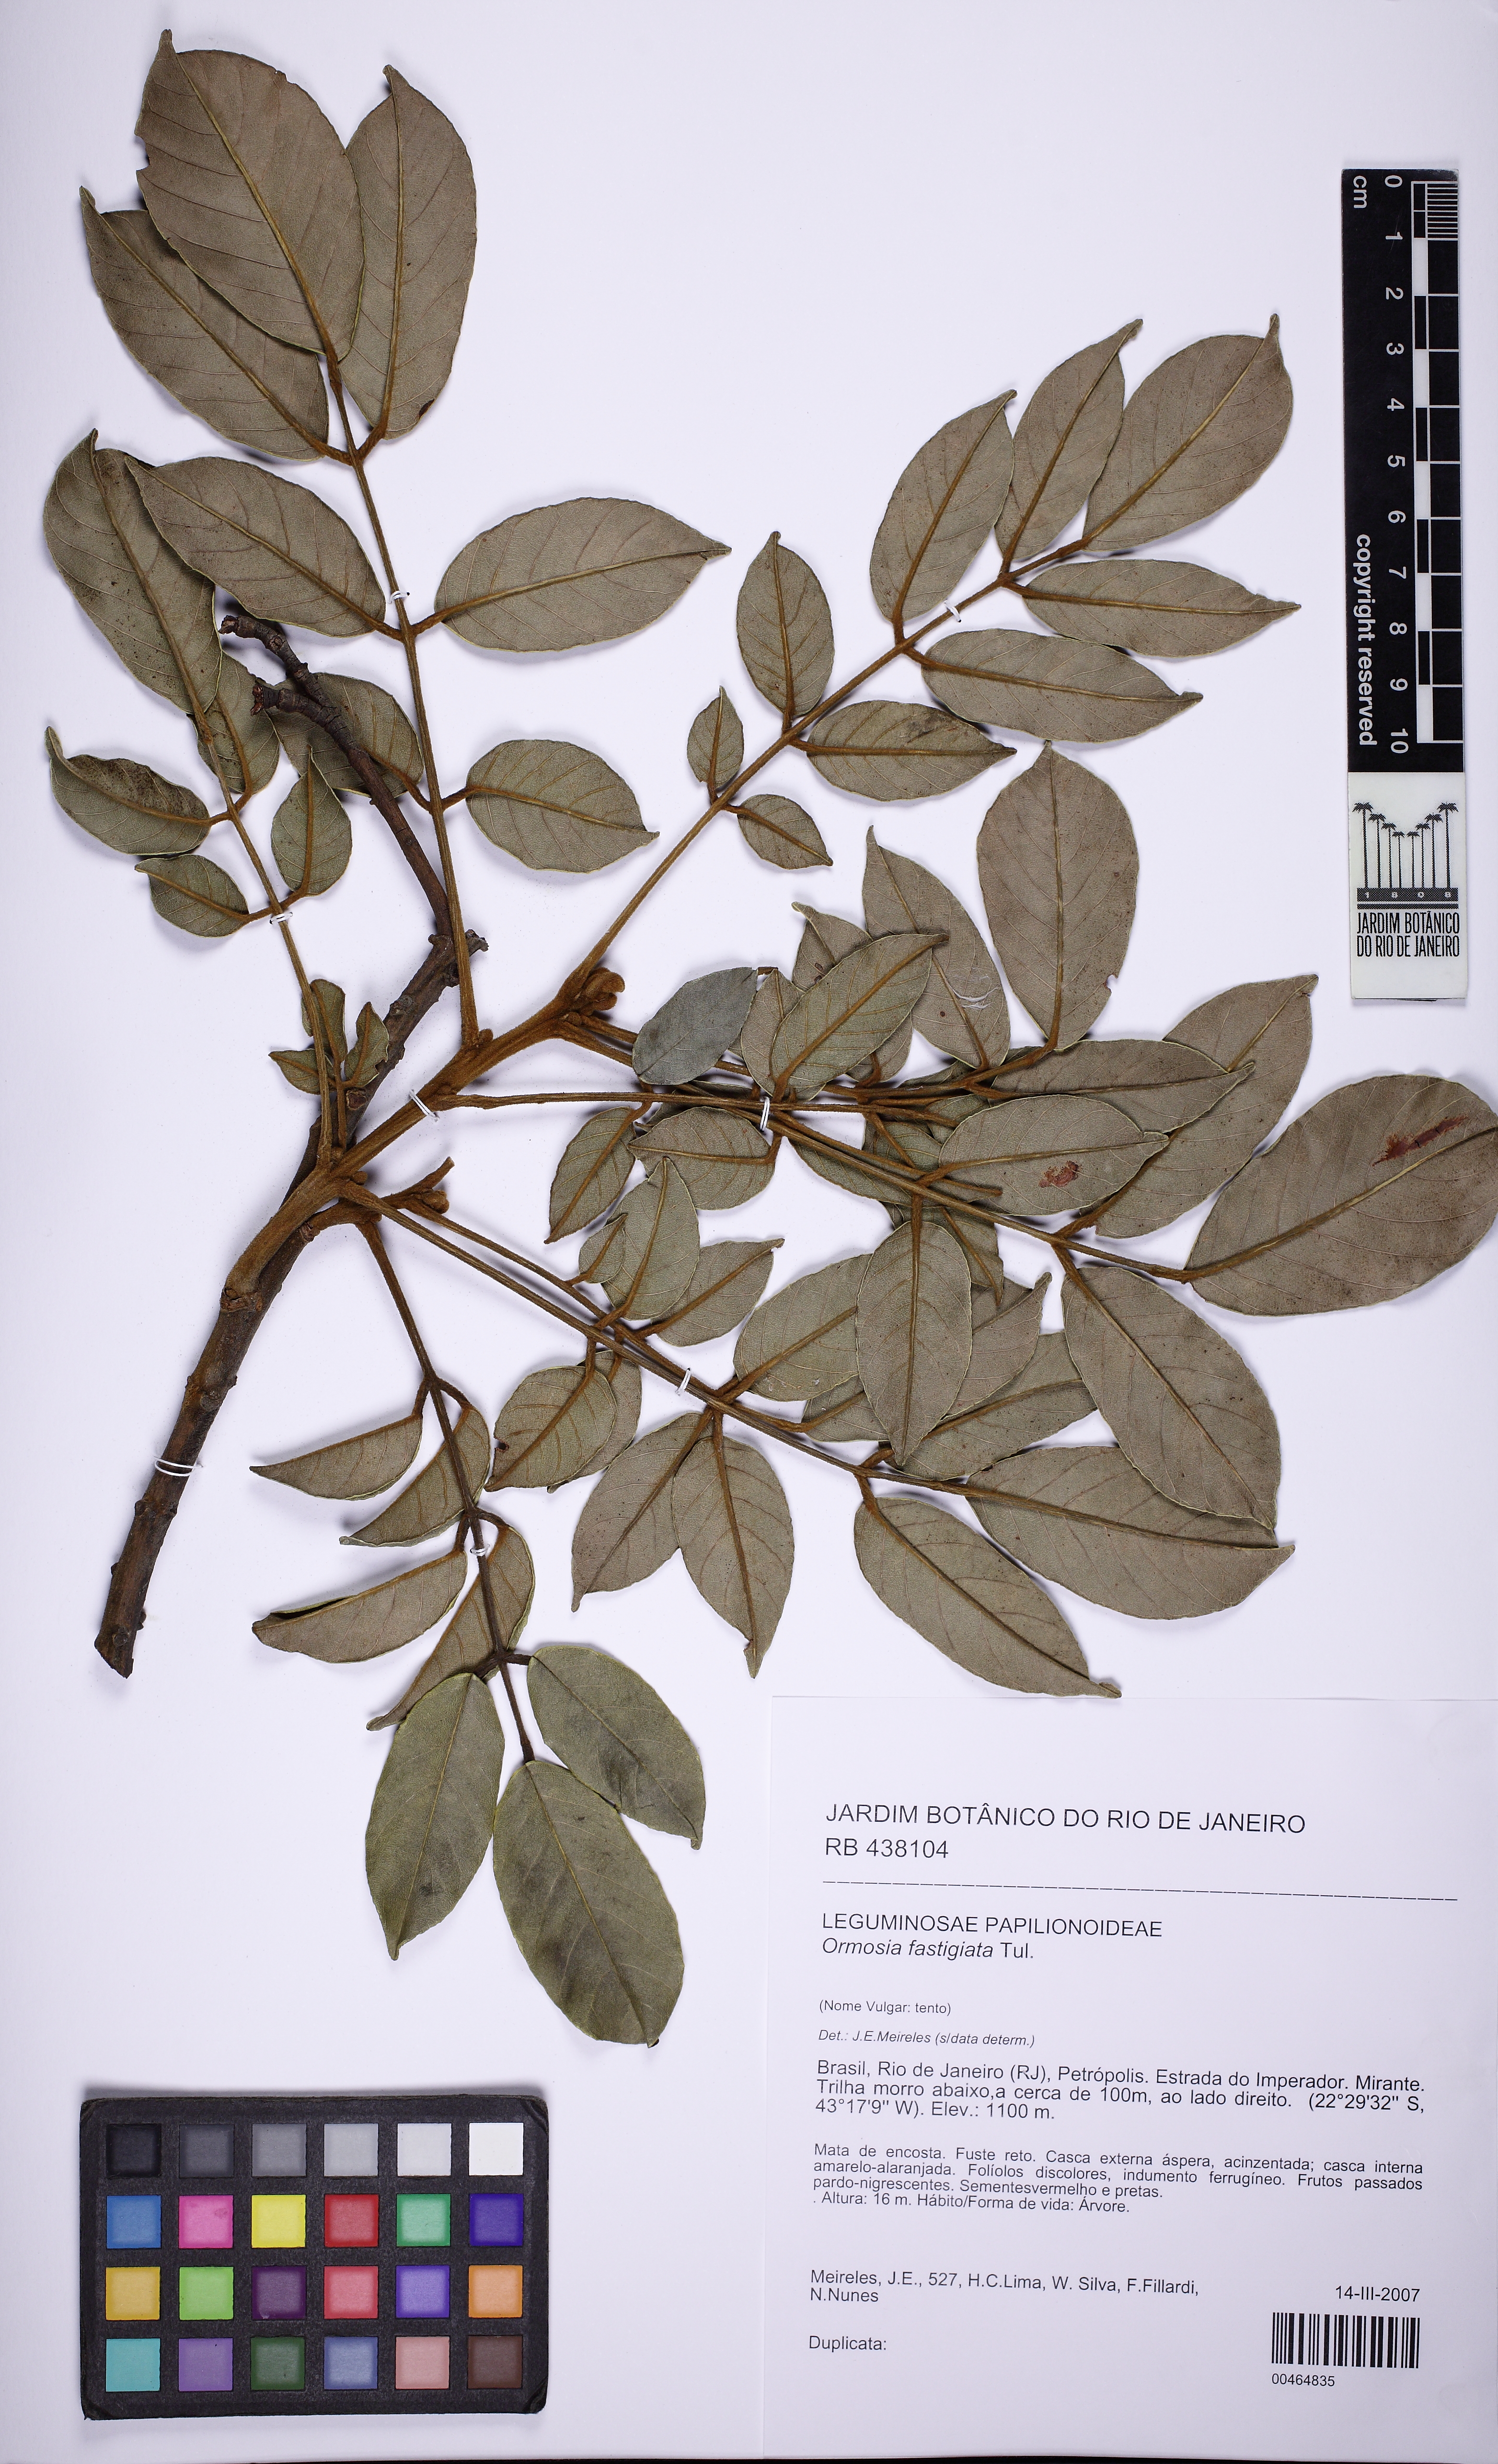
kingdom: Plantae
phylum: Tracheophyta
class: Magnoliopsida
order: Fabales
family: Fabaceae
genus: Ormosia
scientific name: Ormosia fastigiata
